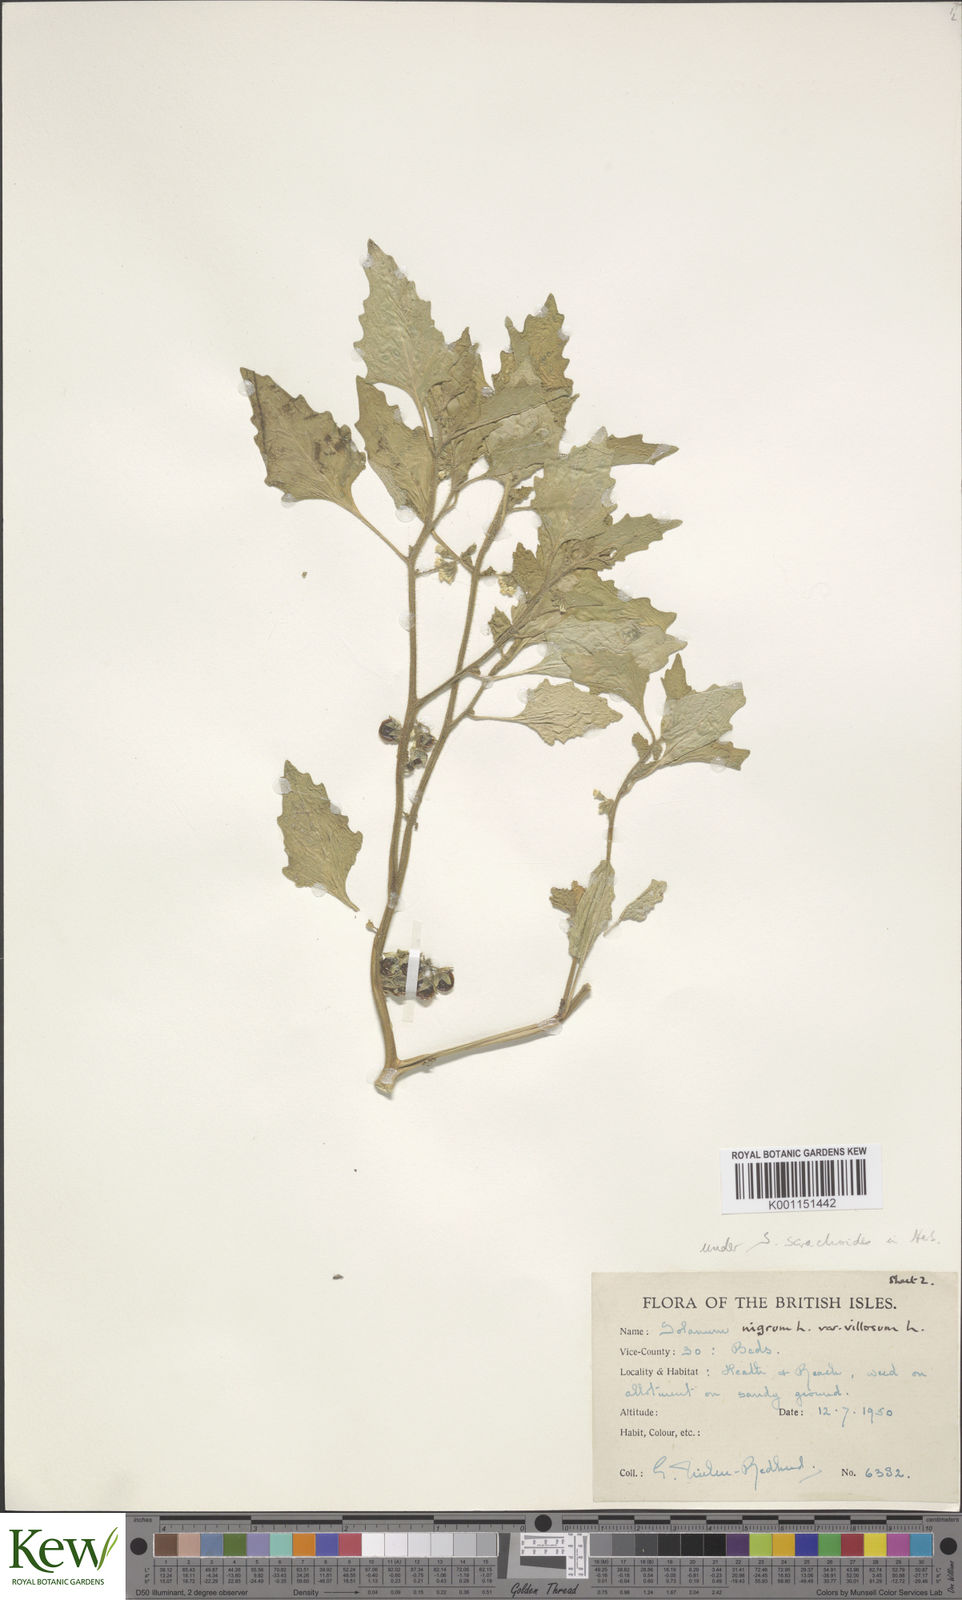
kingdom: Plantae
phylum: Tracheophyta
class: Magnoliopsida
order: Solanales
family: Solanaceae
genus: Solanum
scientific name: Solanum villosum
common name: Red nightshade
